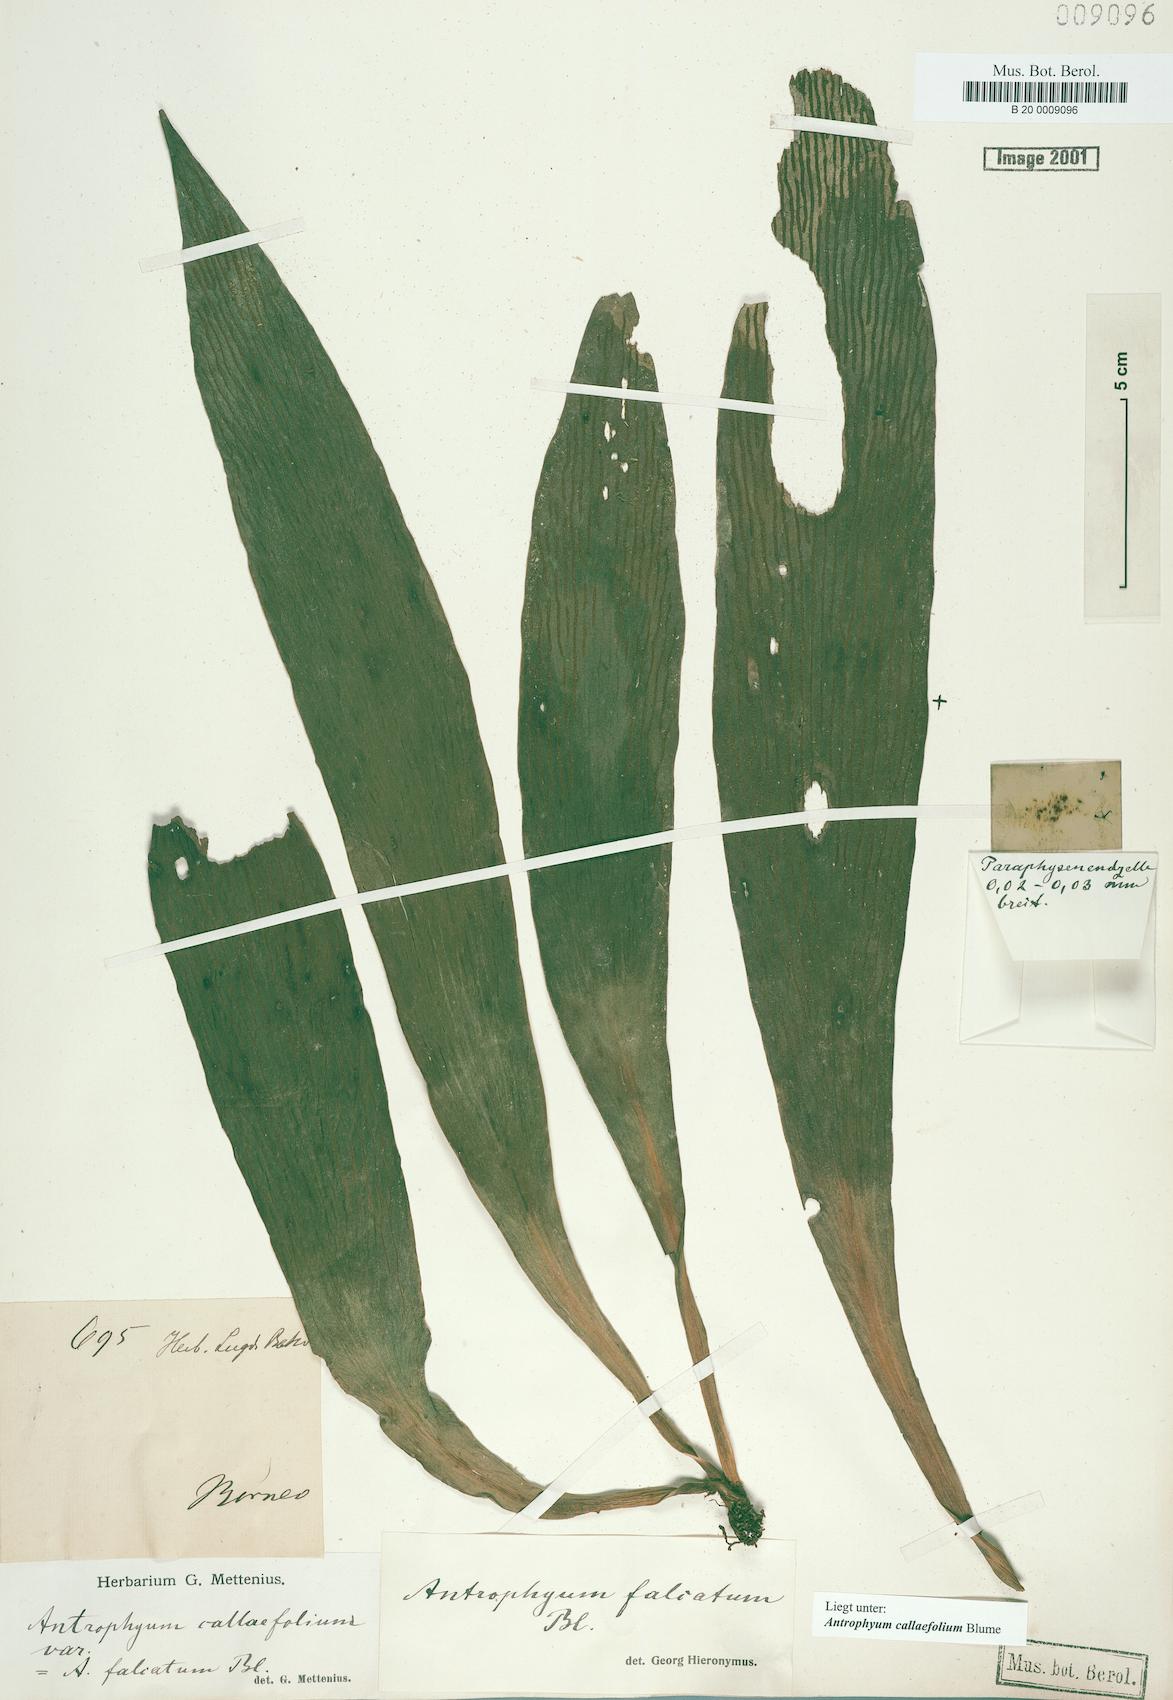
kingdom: Plantae
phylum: Tracheophyta
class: Polypodiopsida
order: Polypodiales
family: Pteridaceae
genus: Antrophyum
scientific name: Antrophyum callifolium
